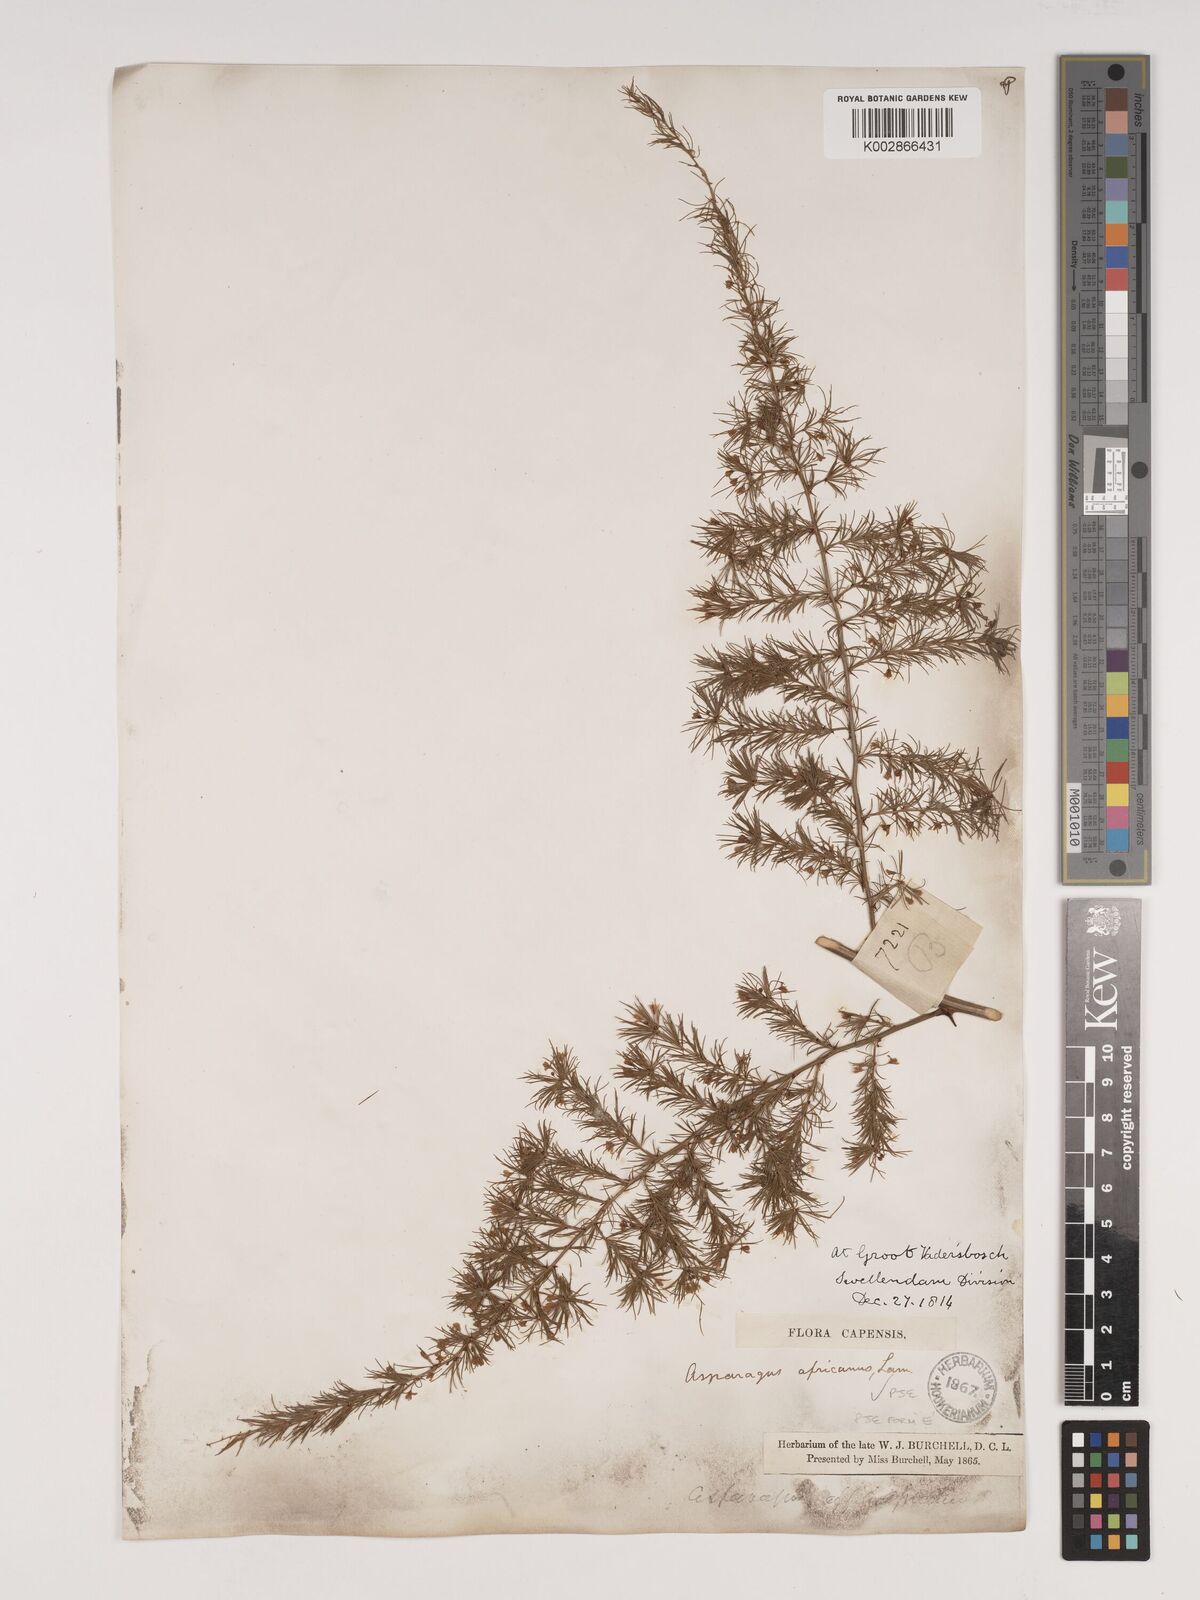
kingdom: Plantae
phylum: Tracheophyta
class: Liliopsida
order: Asparagales
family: Asparagaceae
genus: Asparagus
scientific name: Asparagus africanus
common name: Asparagus-fern
